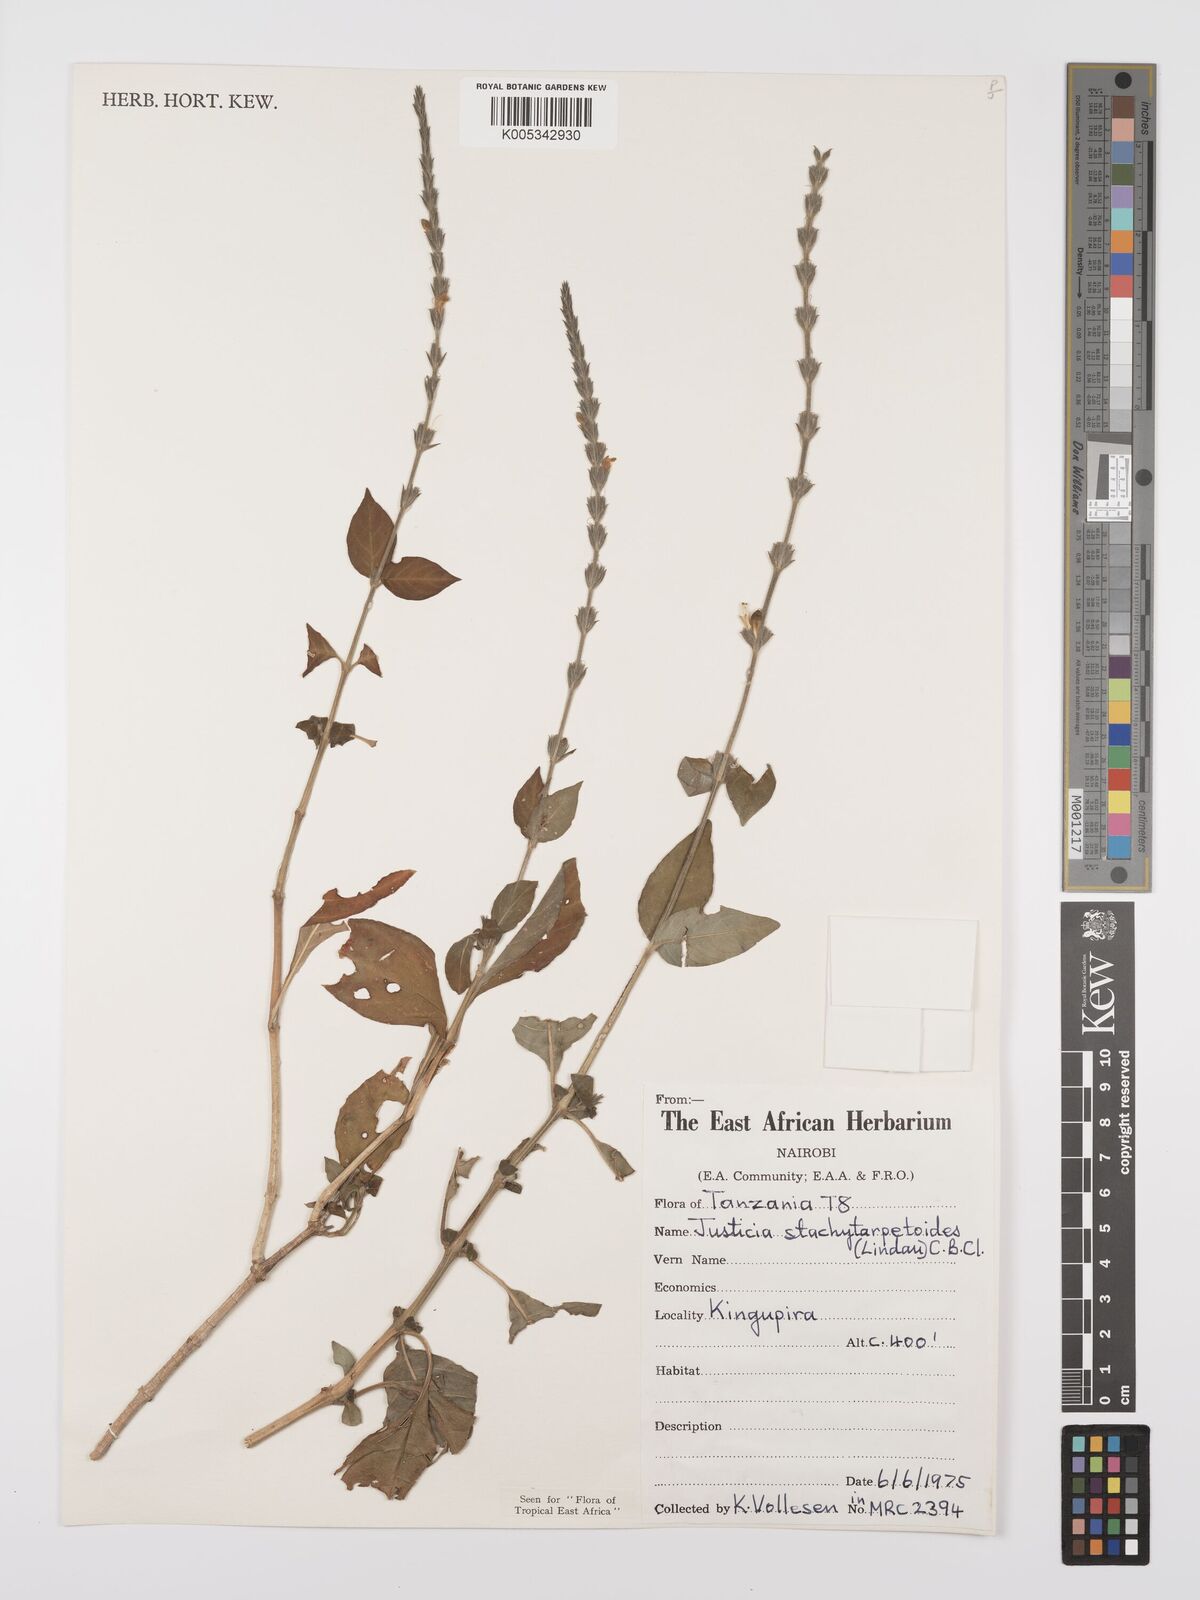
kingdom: Plantae
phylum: Tracheophyta
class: Magnoliopsida
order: Lamiales
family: Acanthaceae
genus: Justicia
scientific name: Justicia stachytarphetoides
